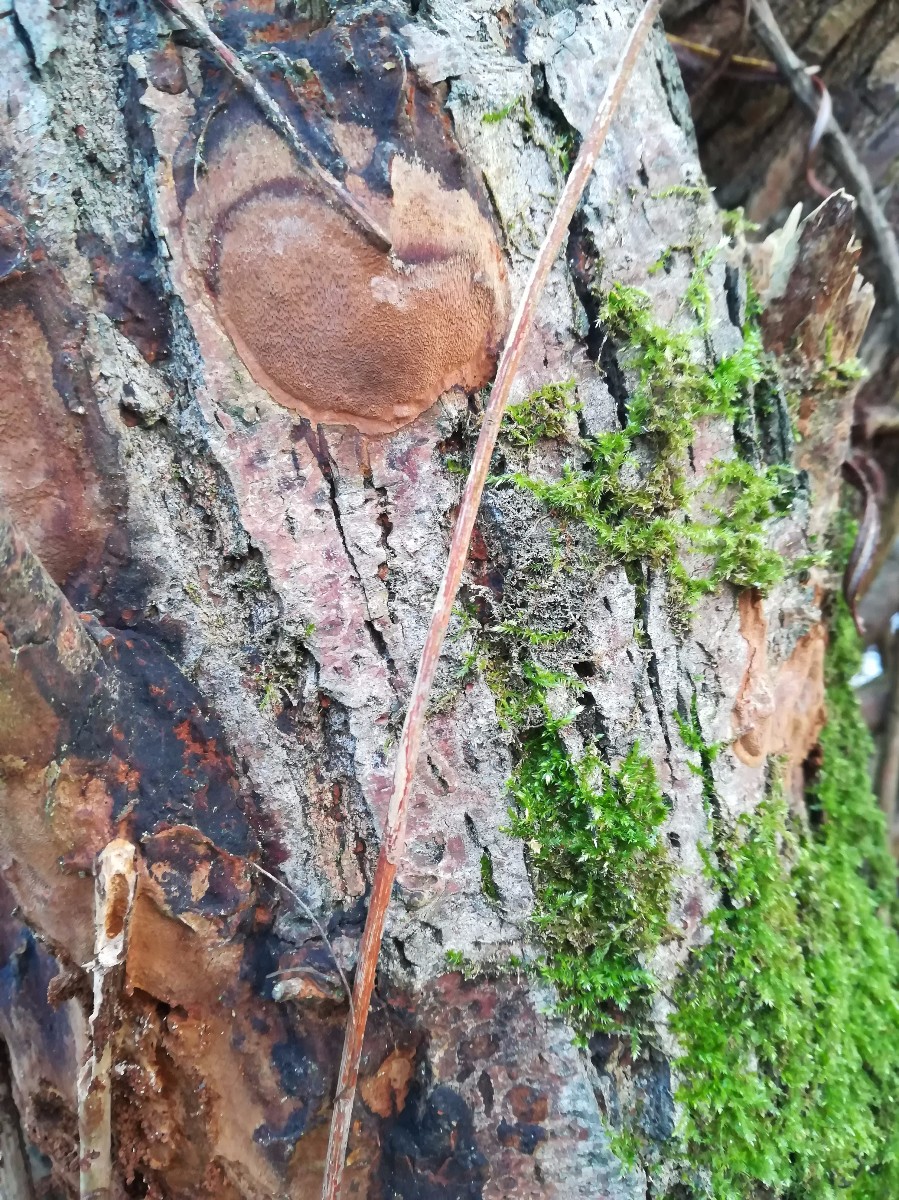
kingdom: Fungi
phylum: Basidiomycota
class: Agaricomycetes
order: Hymenochaetales
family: Hymenochaetaceae
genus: Phellinopsis
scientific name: Phellinopsis conchata
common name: pile-ildporesvamp
